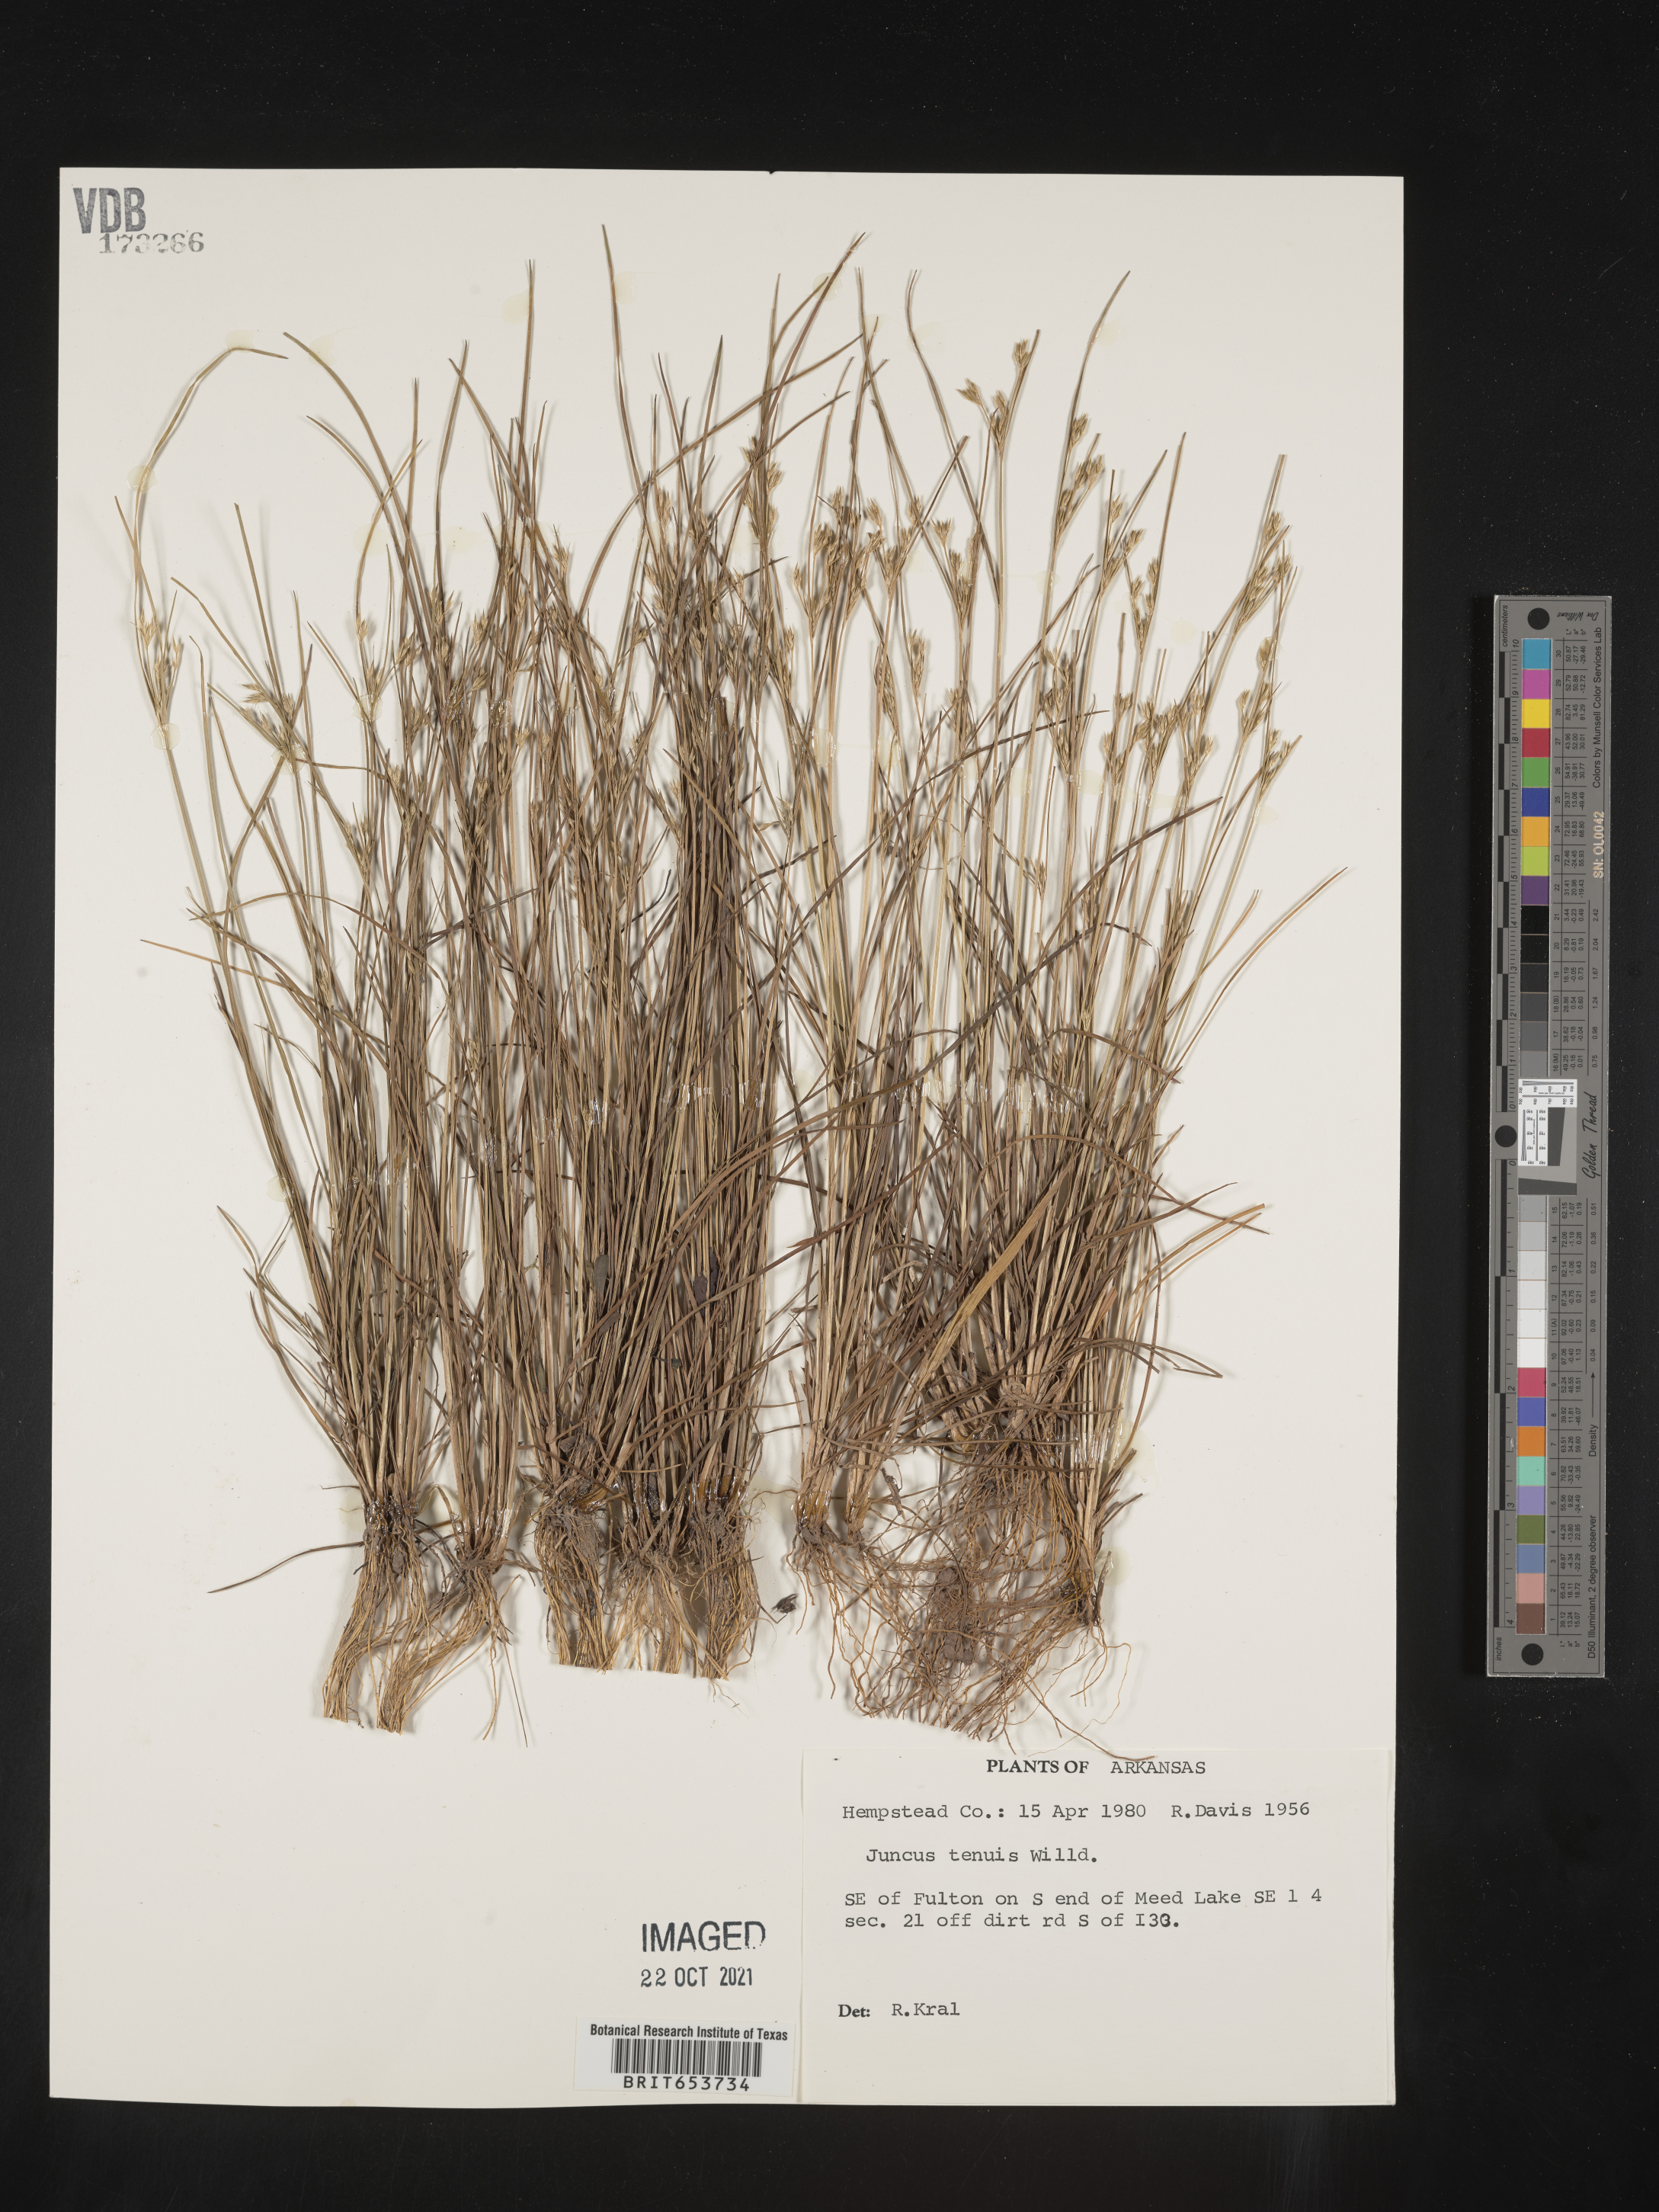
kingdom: Plantae
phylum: Tracheophyta
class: Liliopsida
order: Poales
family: Juncaceae
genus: Juncus
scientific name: Juncus tenuis
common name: Slender rush
